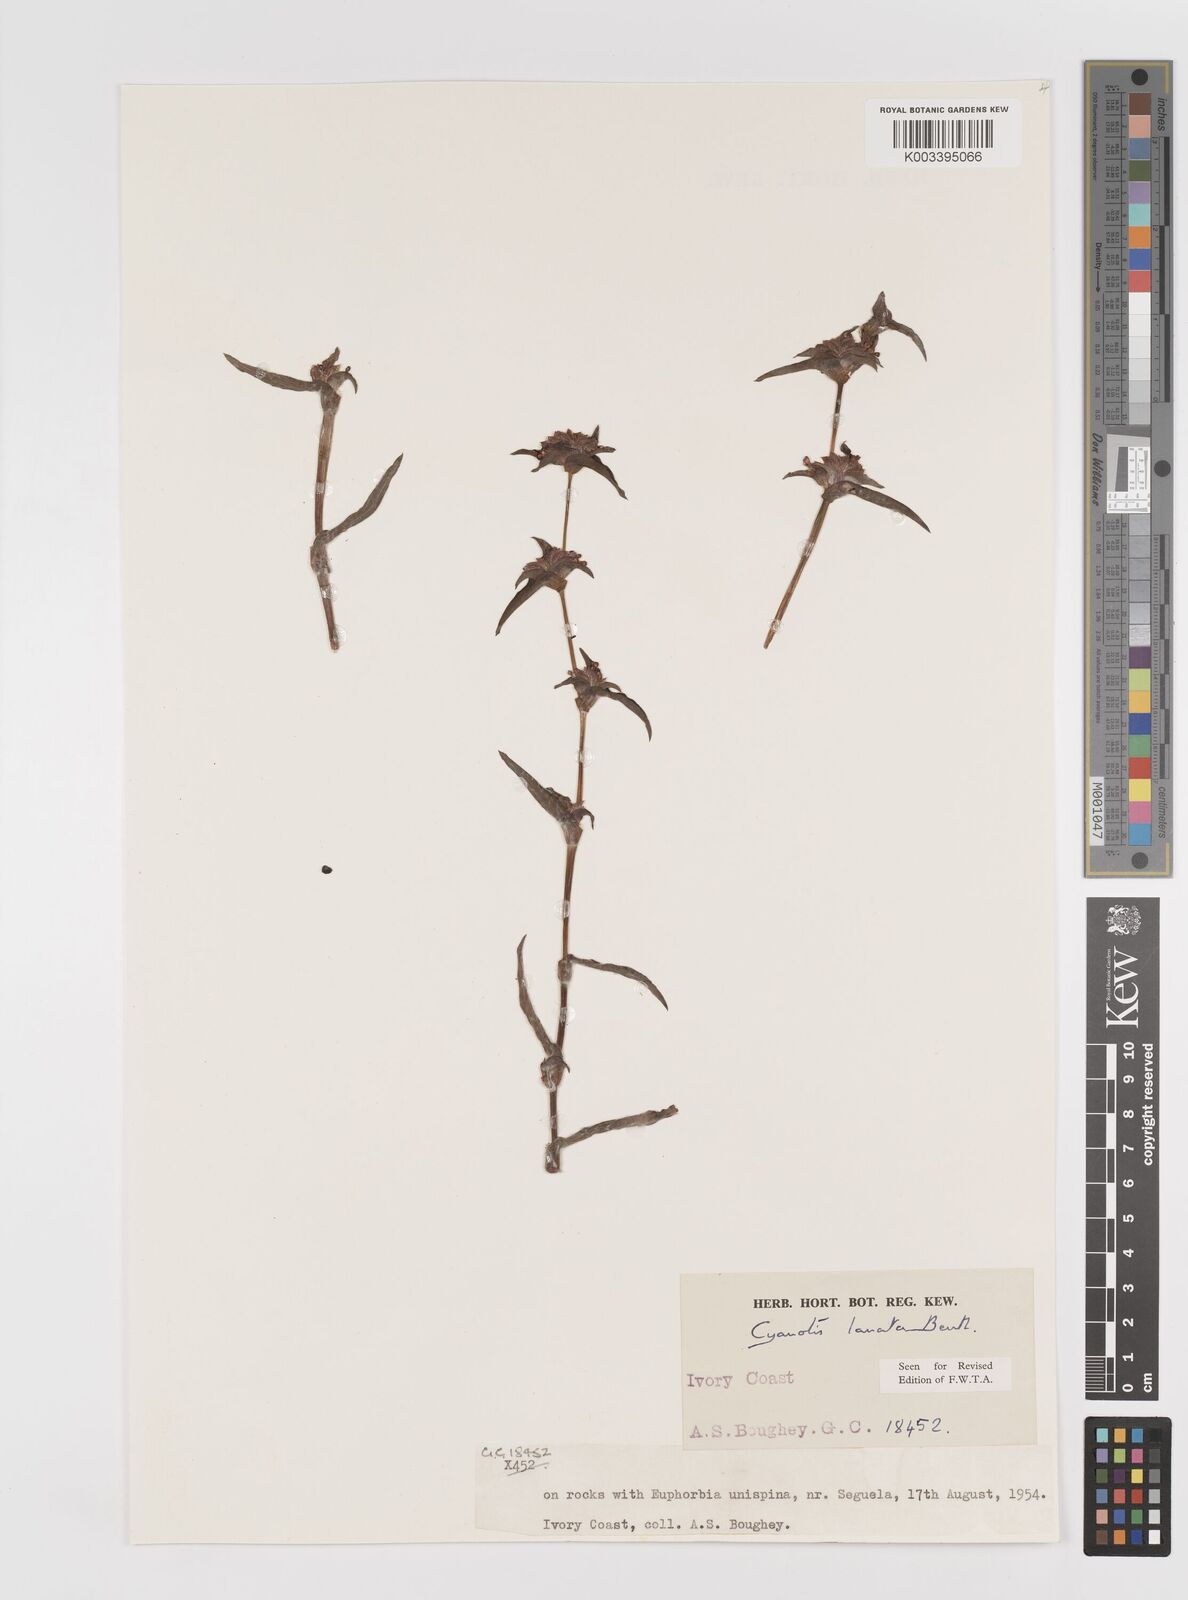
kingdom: Plantae
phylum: Tracheophyta
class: Liliopsida
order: Commelinales
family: Commelinaceae
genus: Cyanotis
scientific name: Cyanotis lanata
